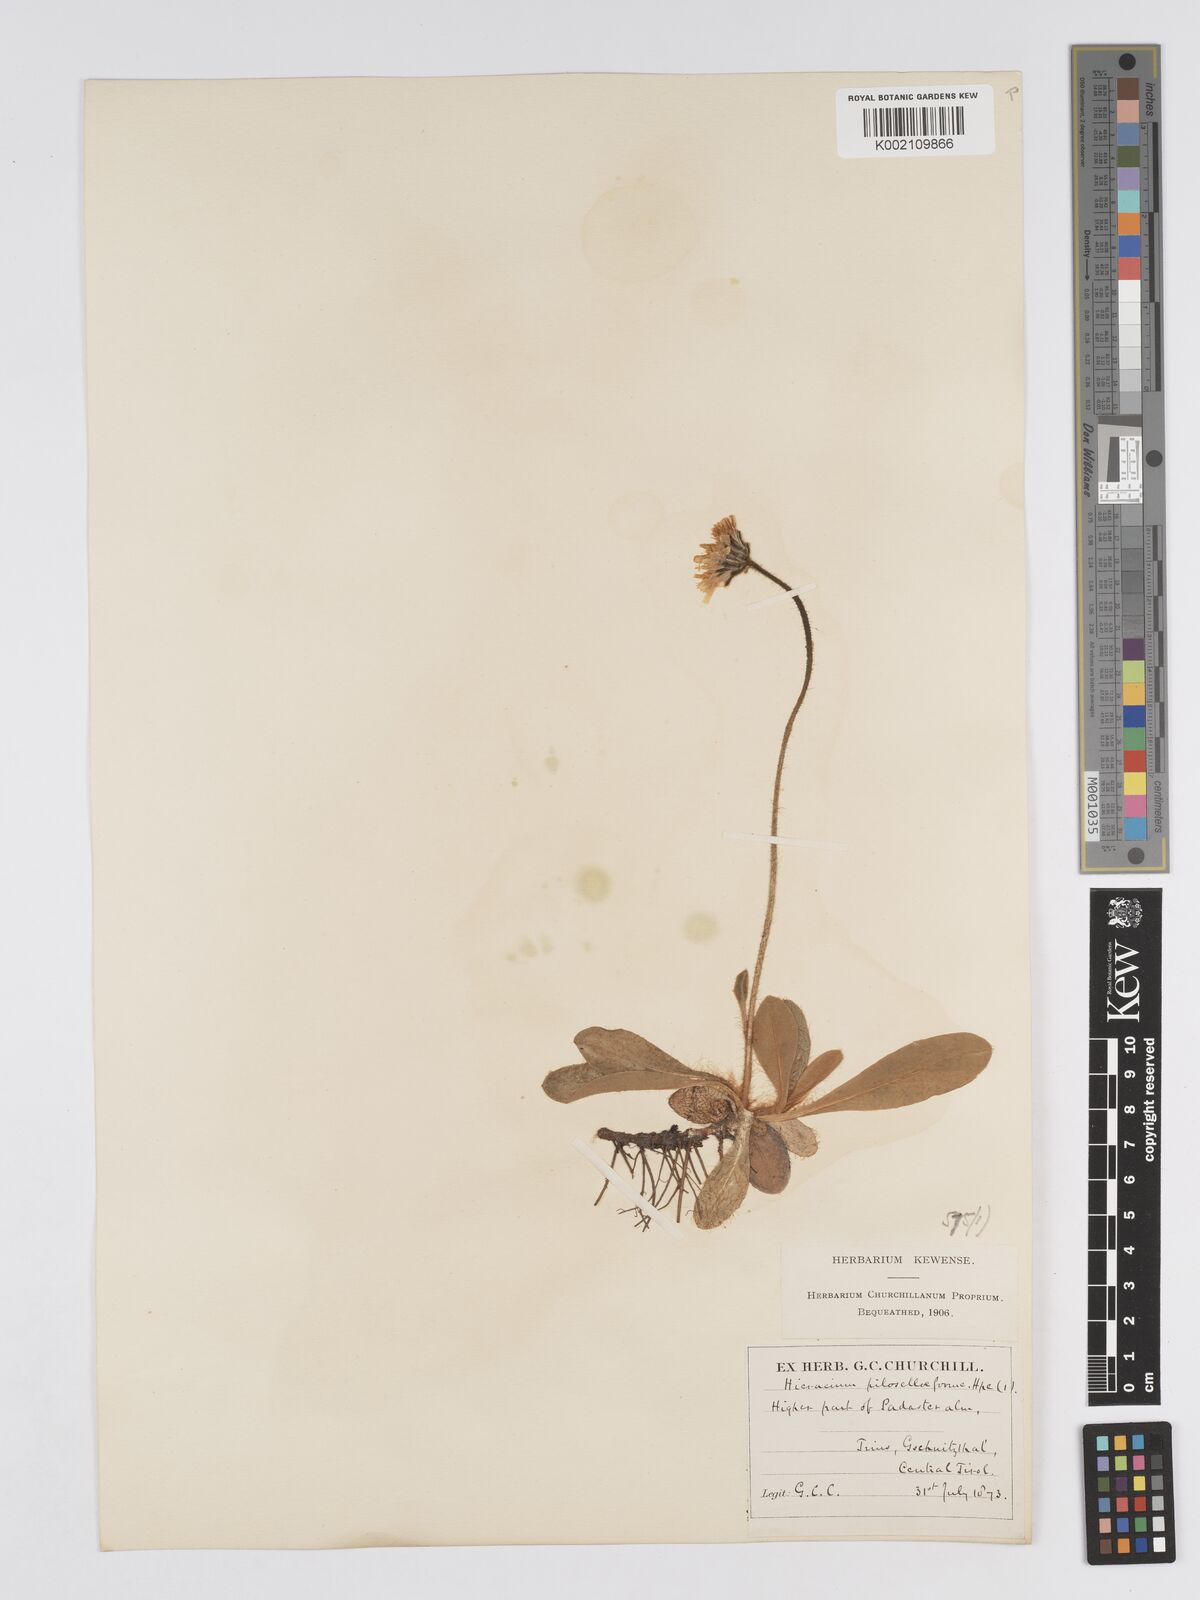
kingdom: Plantae
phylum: Tracheophyta
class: Magnoliopsida
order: Asterales
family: Asteraceae
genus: Pilosella
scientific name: Pilosella hoppeana
